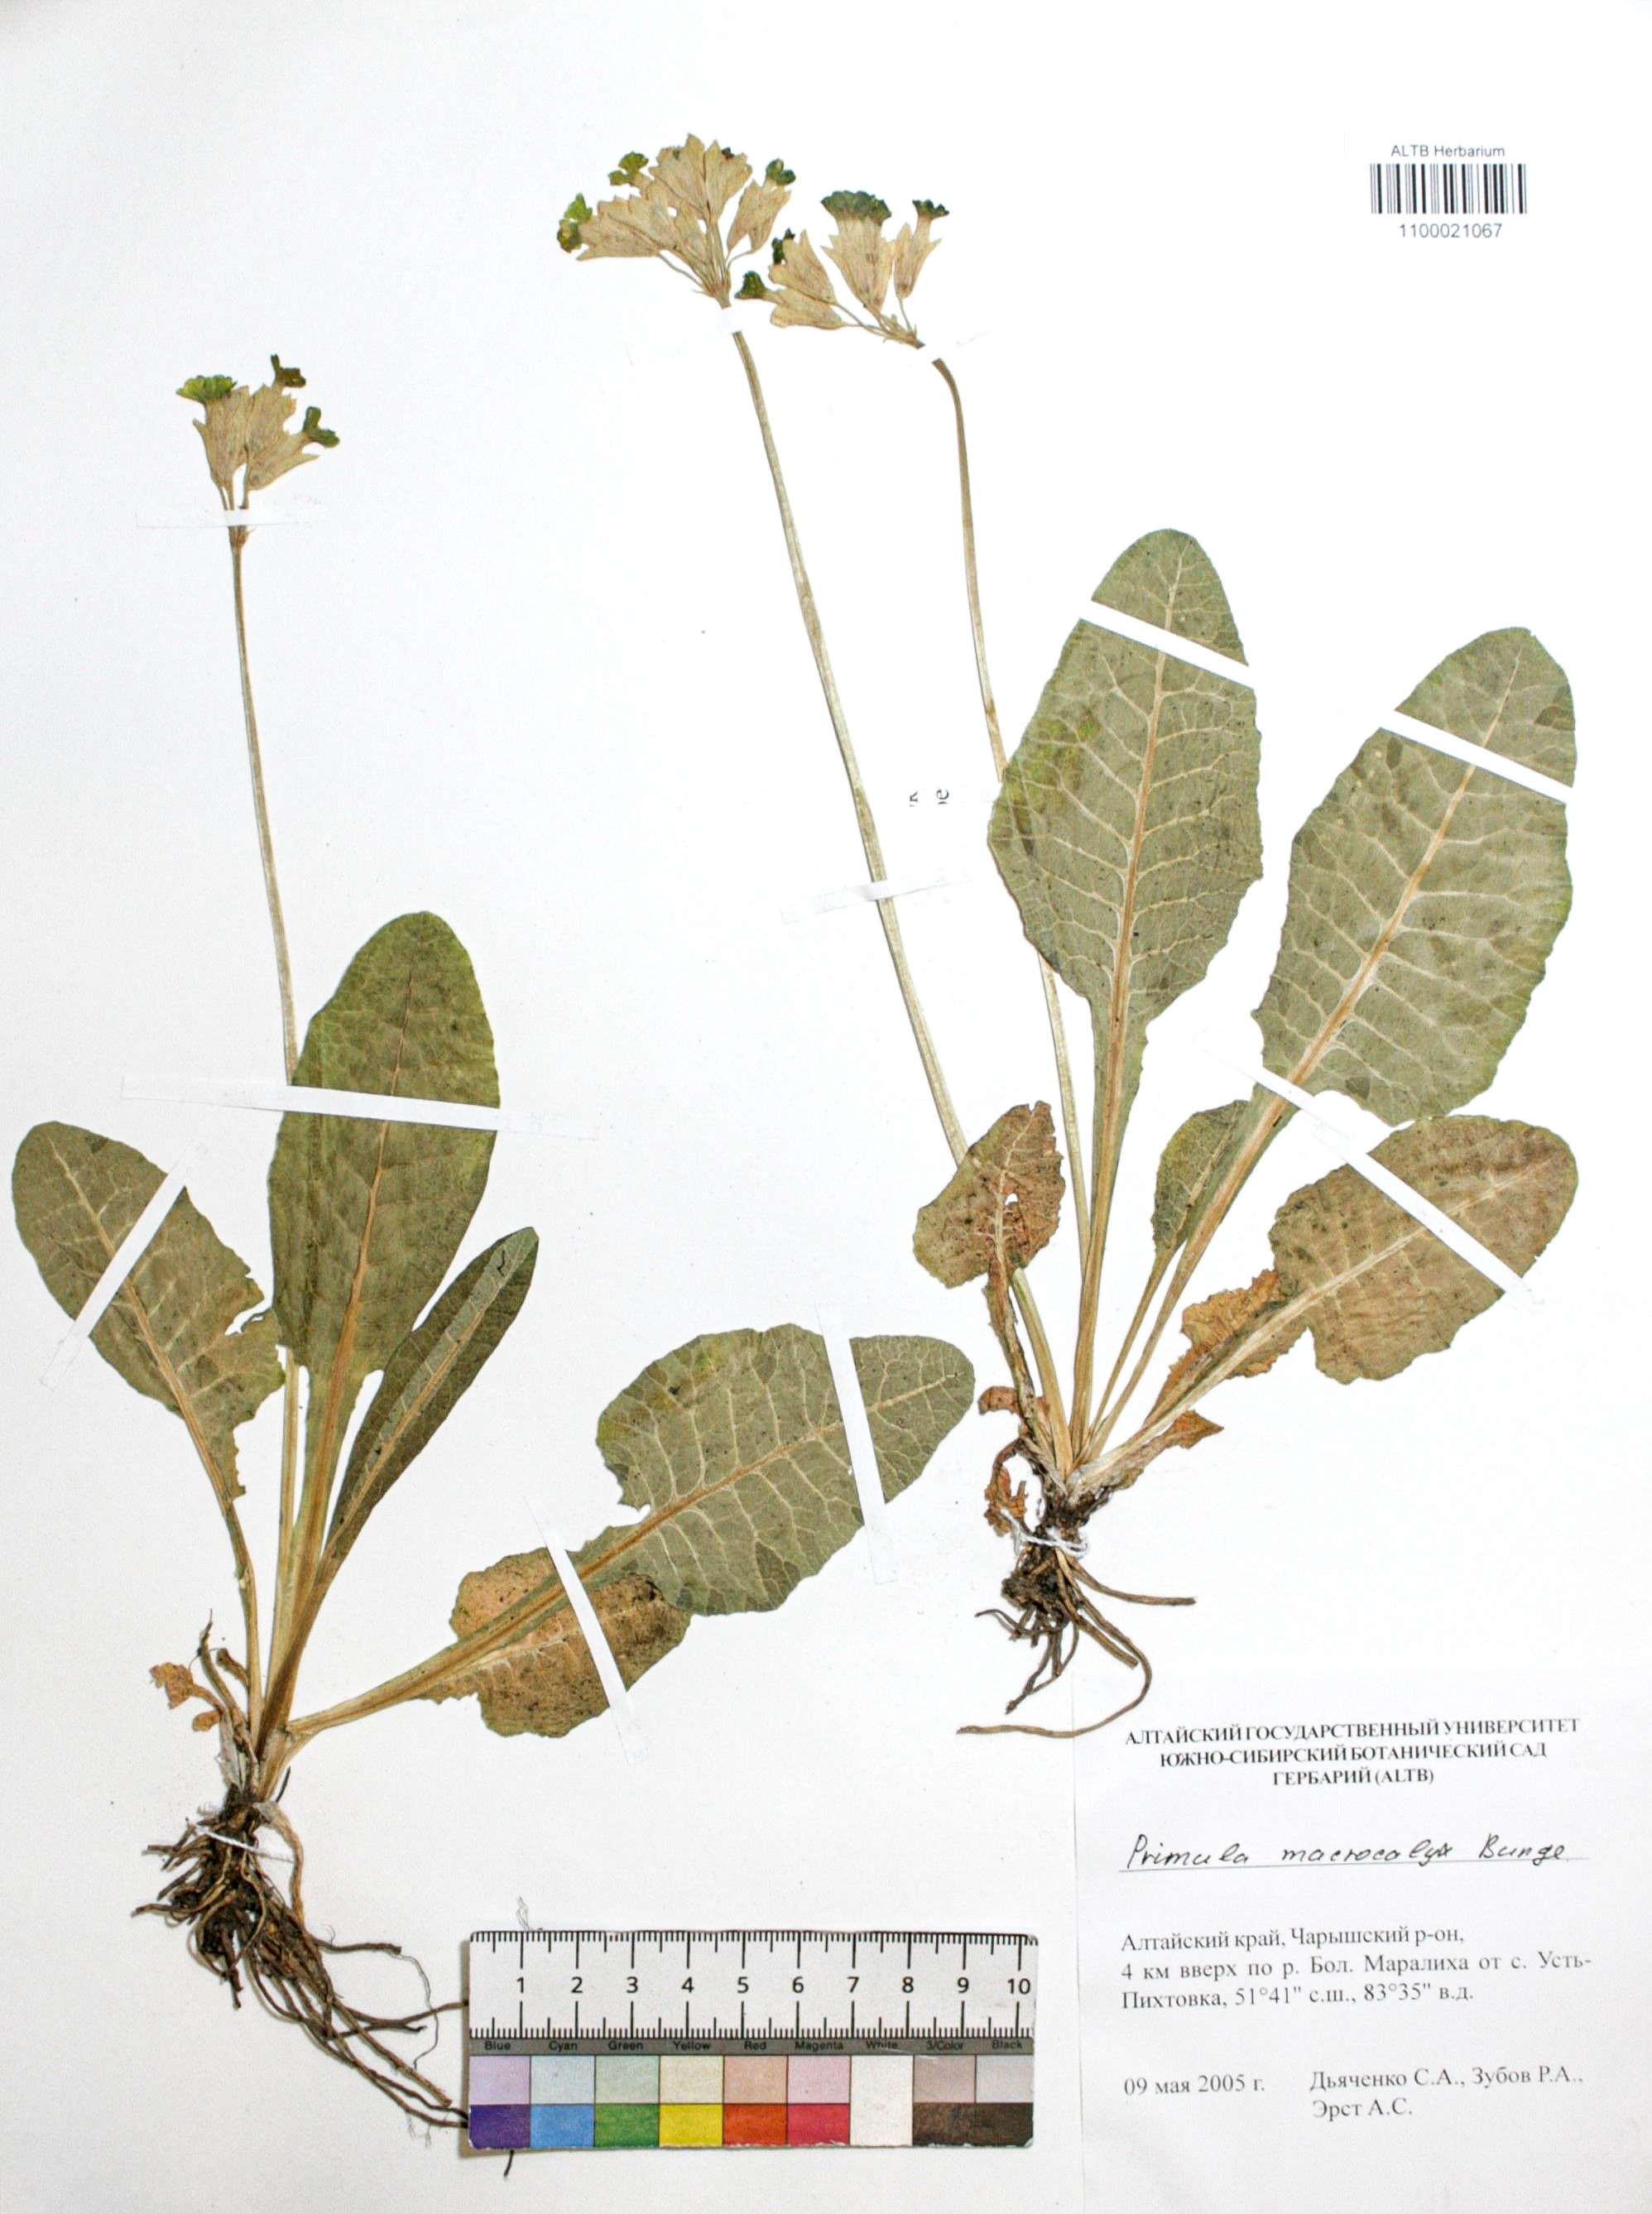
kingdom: Plantae
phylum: Tracheophyta
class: Magnoliopsida
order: Ericales
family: Primulaceae
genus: Primula
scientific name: Primula veris
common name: Cowslip
